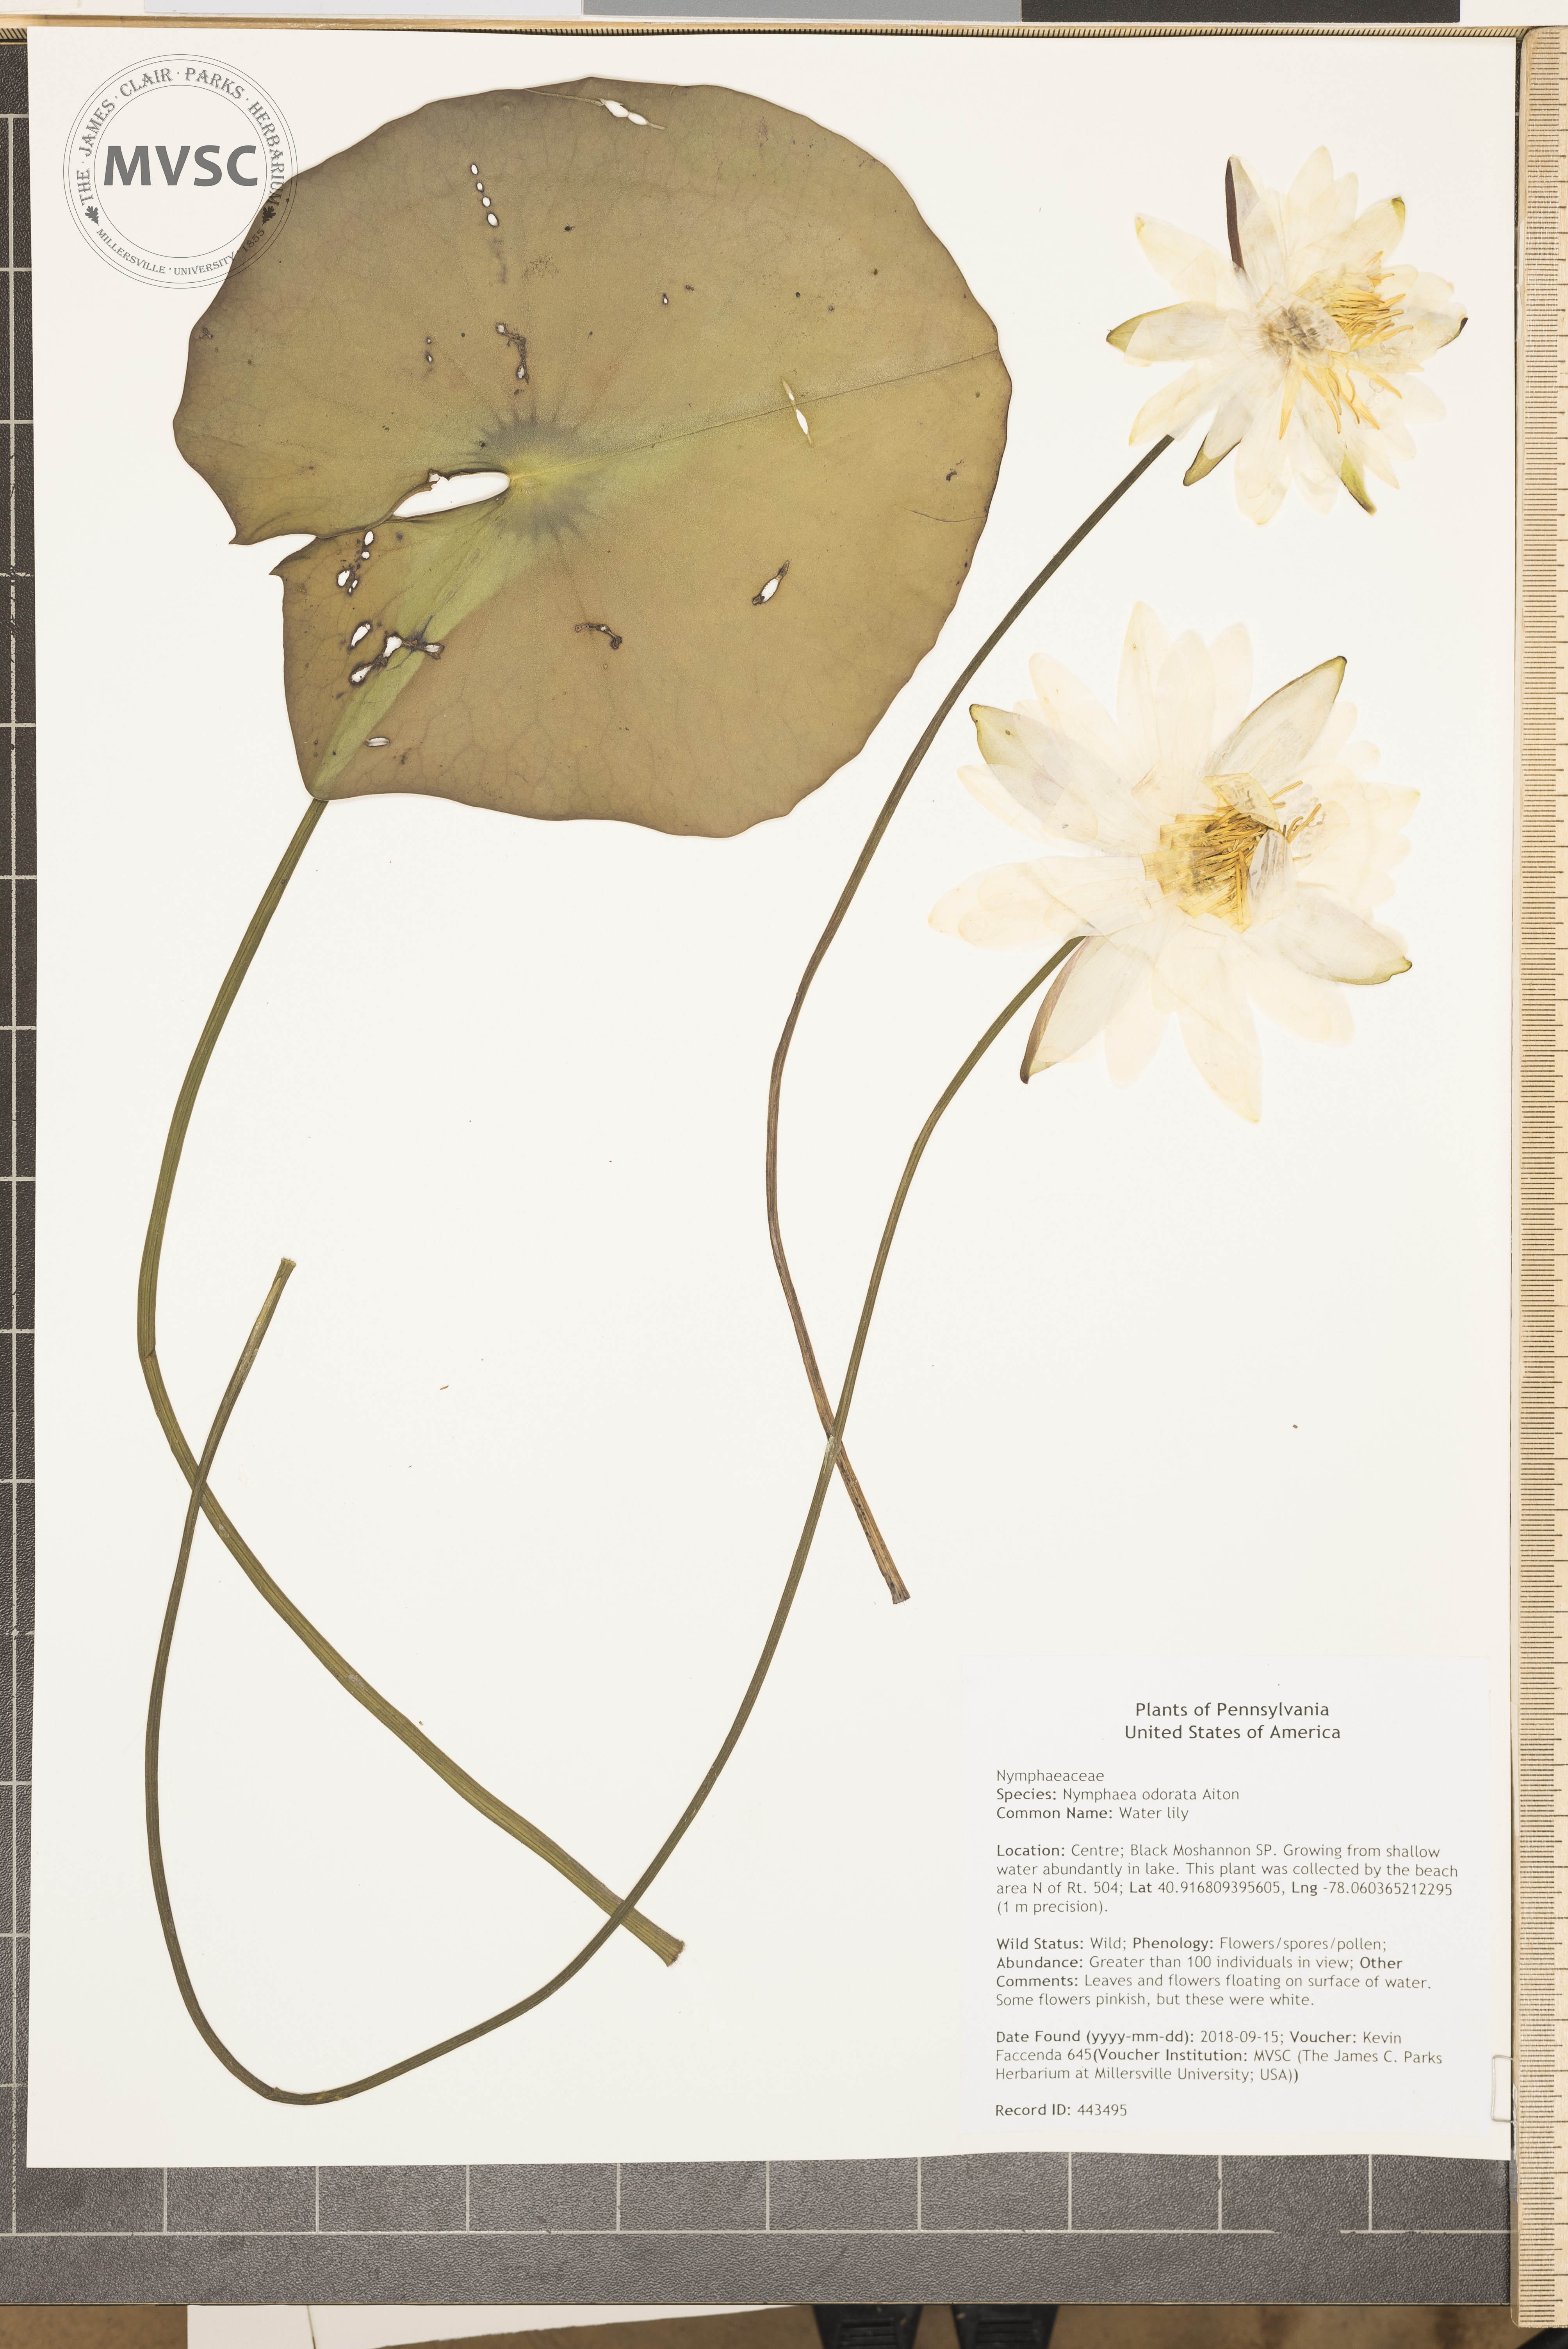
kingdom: Plantae
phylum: Tracheophyta
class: Magnoliopsida
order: Nymphaeales
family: Nymphaeaceae
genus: Nymphaea
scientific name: Nymphaea odorata
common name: Water lily
